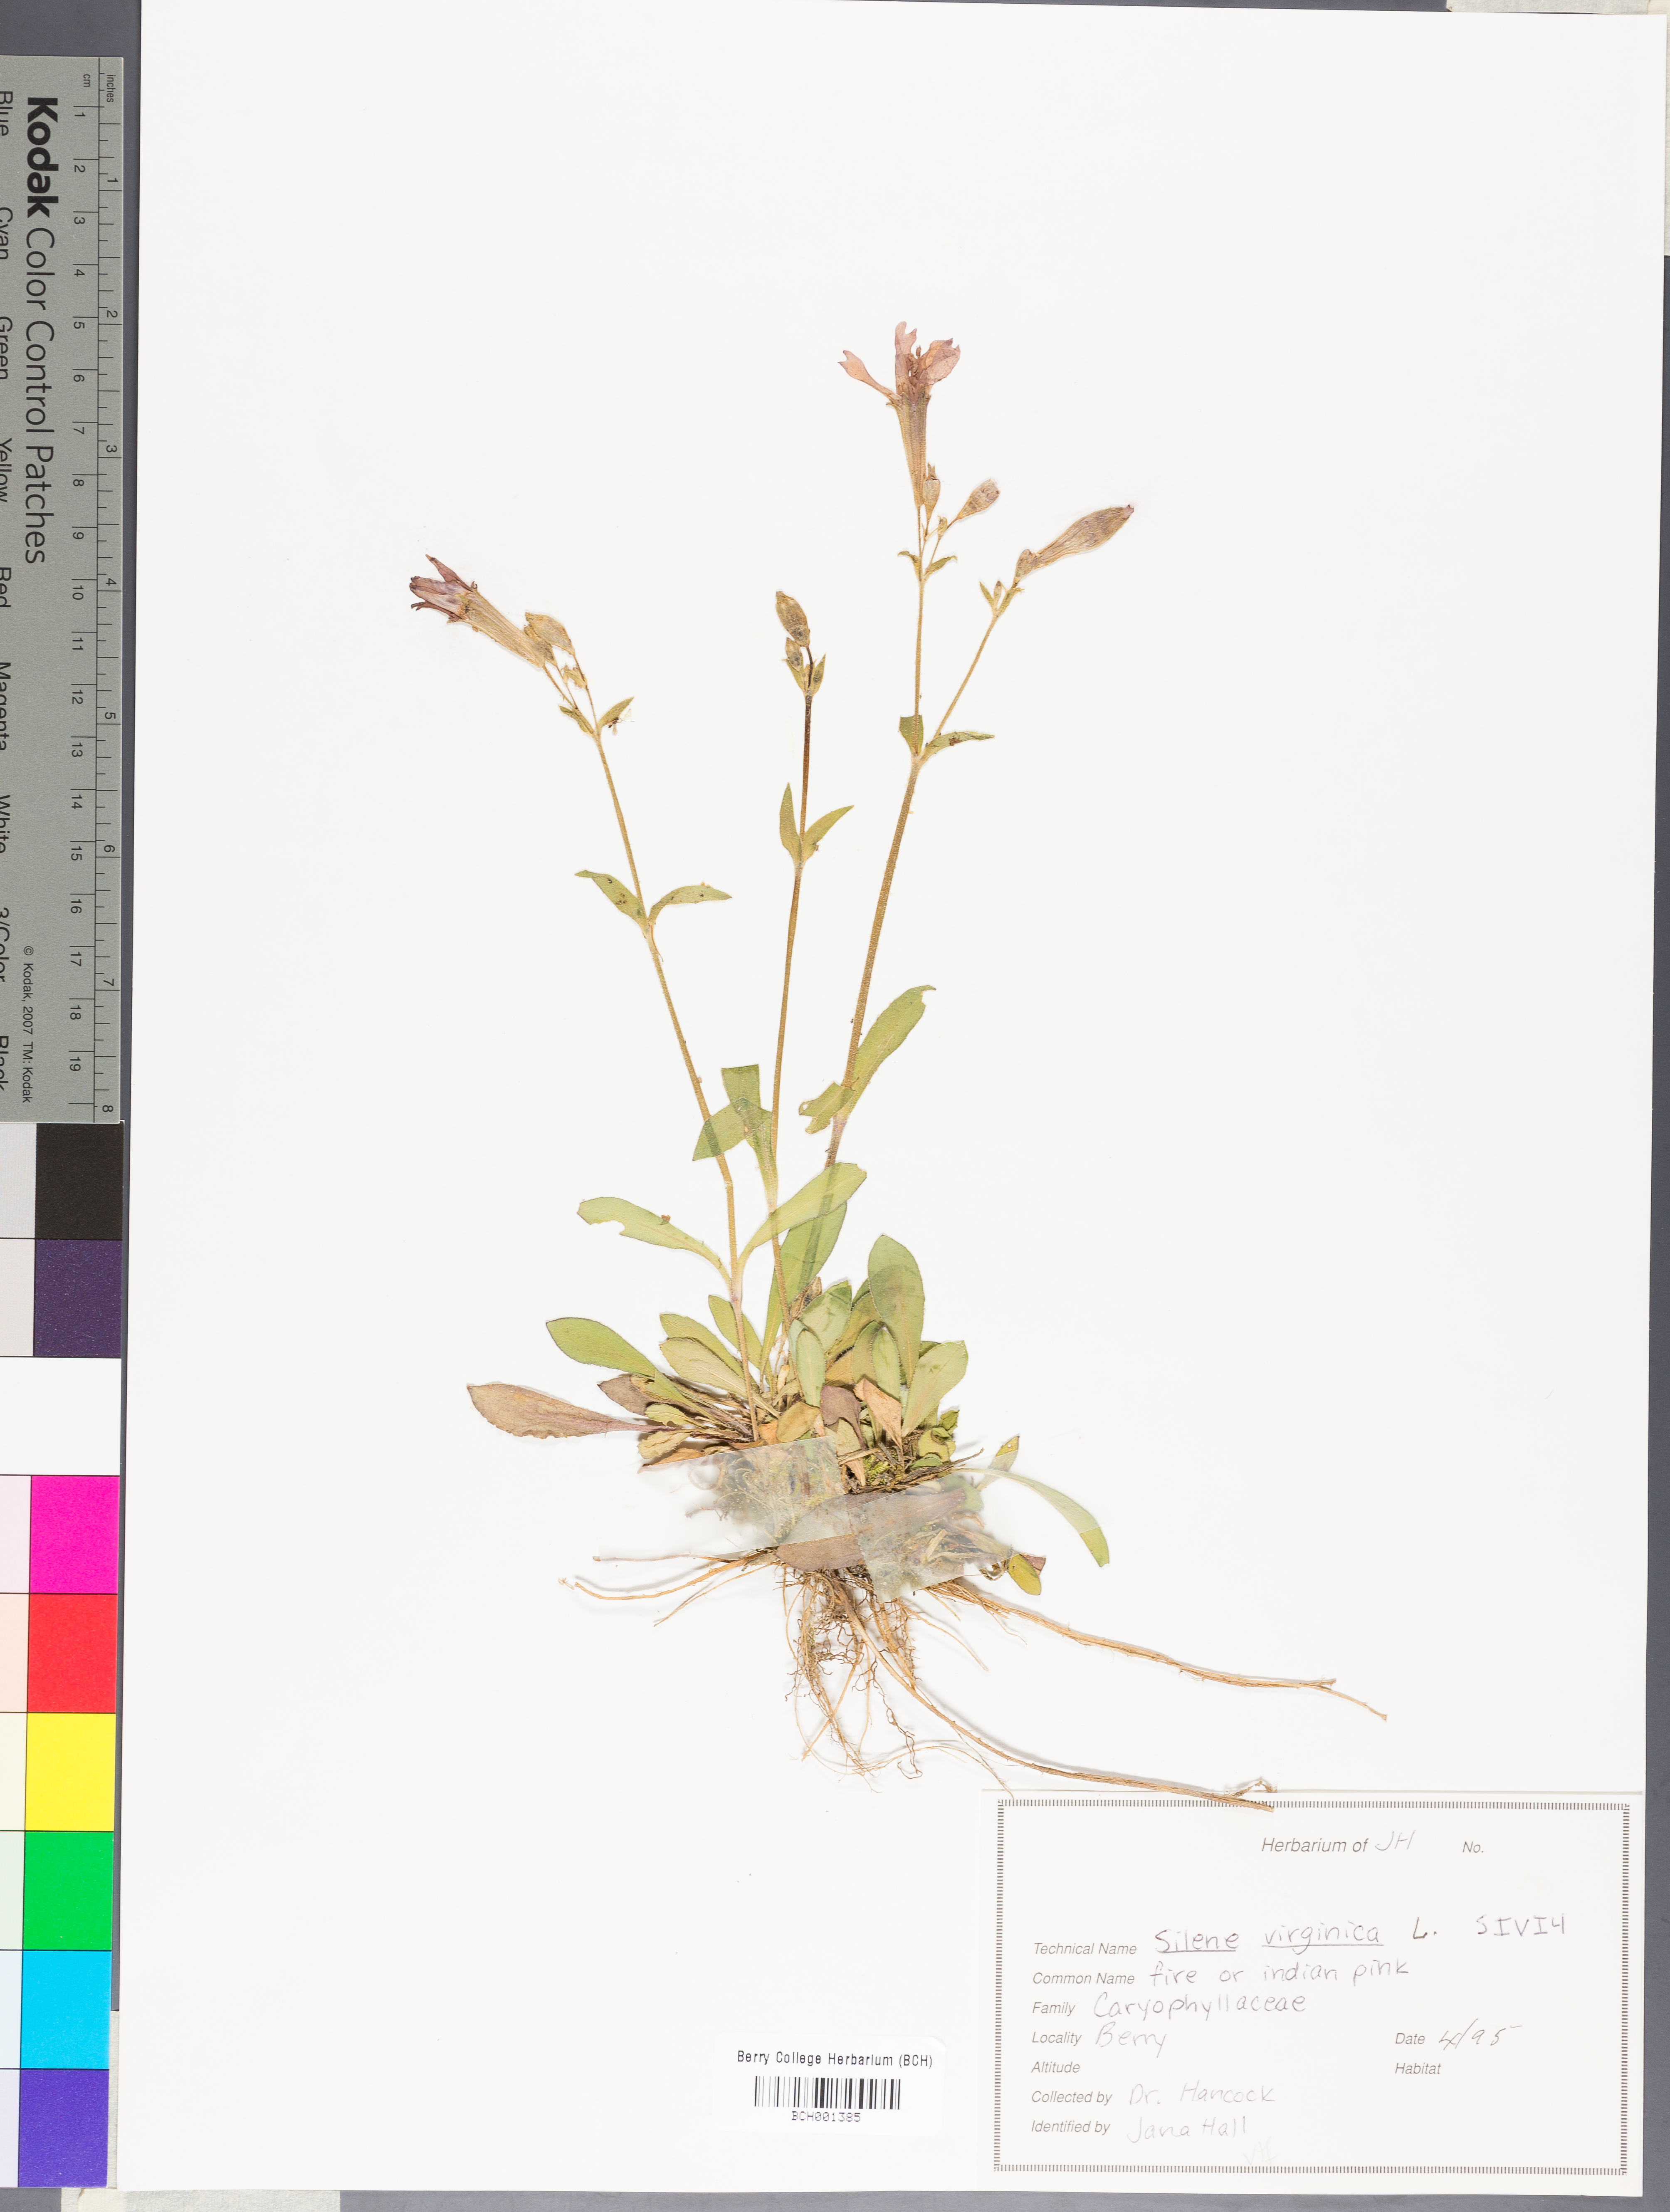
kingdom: Plantae
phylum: Tracheophyta
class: Magnoliopsida
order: Caryophyllales
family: Caryophyllaceae
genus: Silene
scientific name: Silene virginica
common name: Fire-pink
